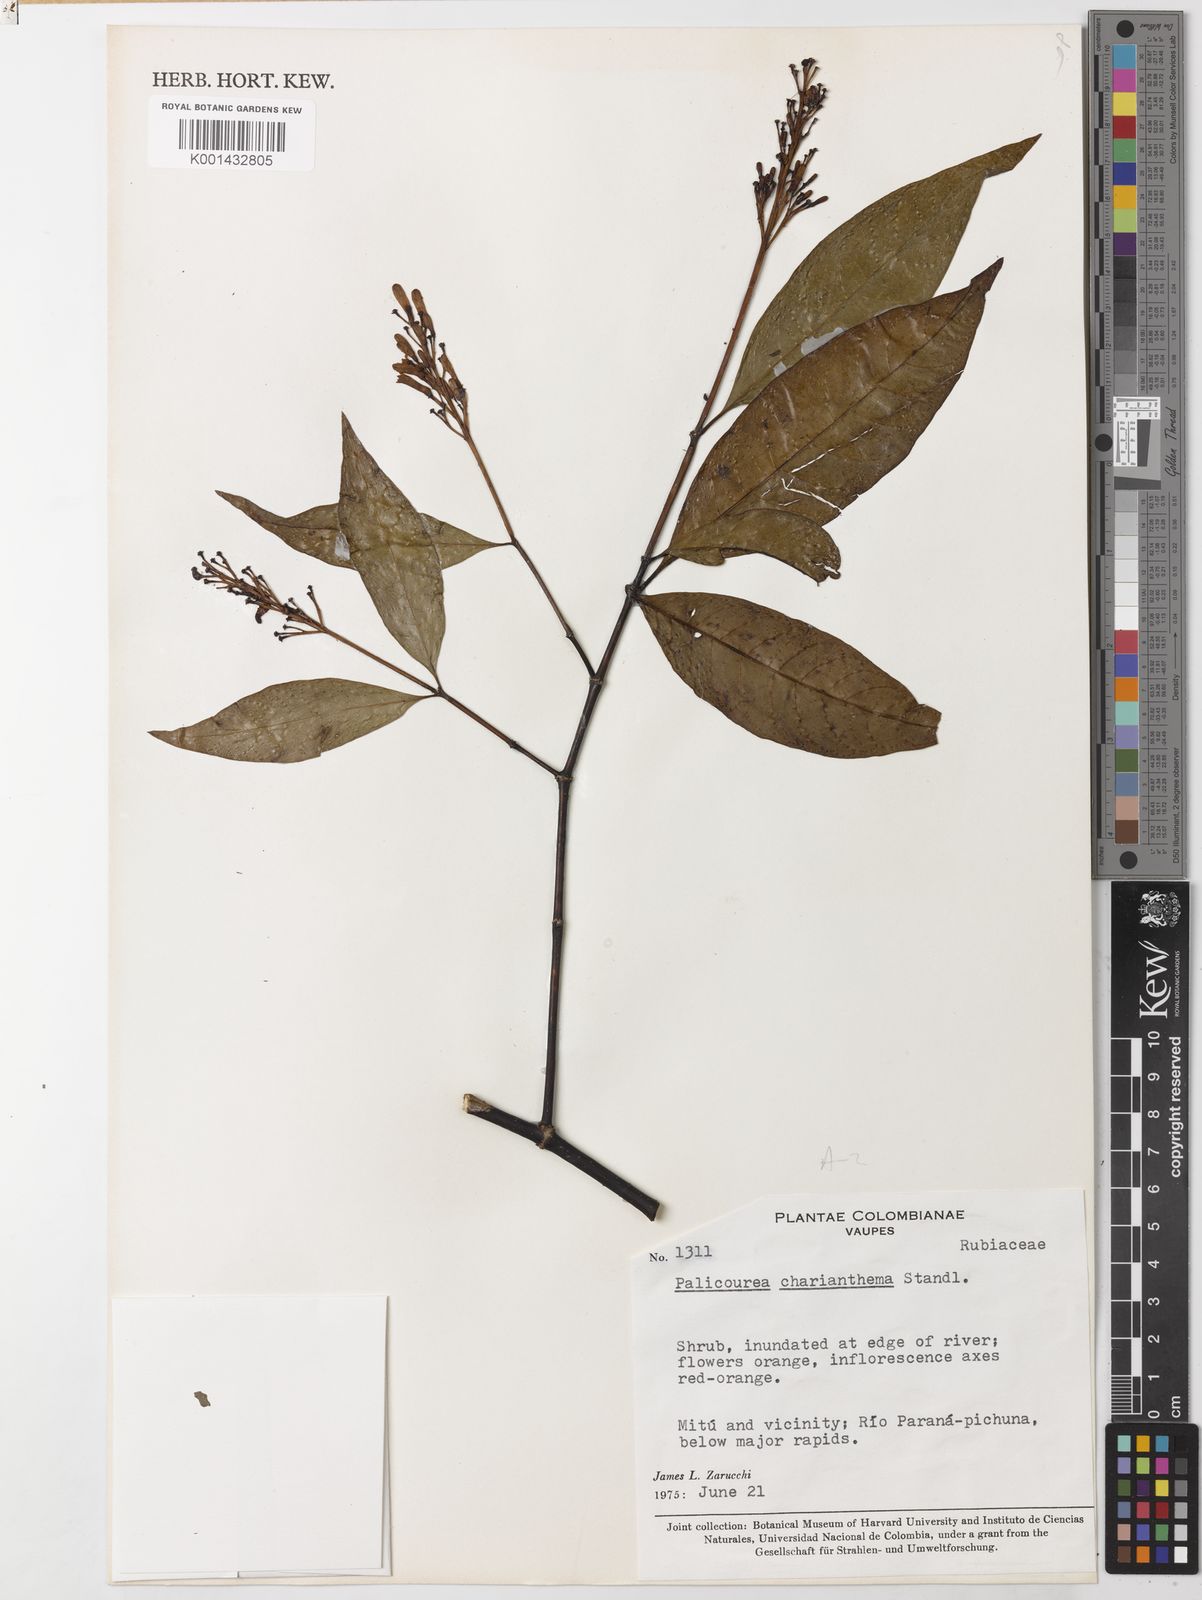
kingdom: Plantae
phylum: Tracheophyta
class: Magnoliopsida
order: Gentianales
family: Rubiaceae
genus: Palicourea
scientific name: Palicourea charianthema
